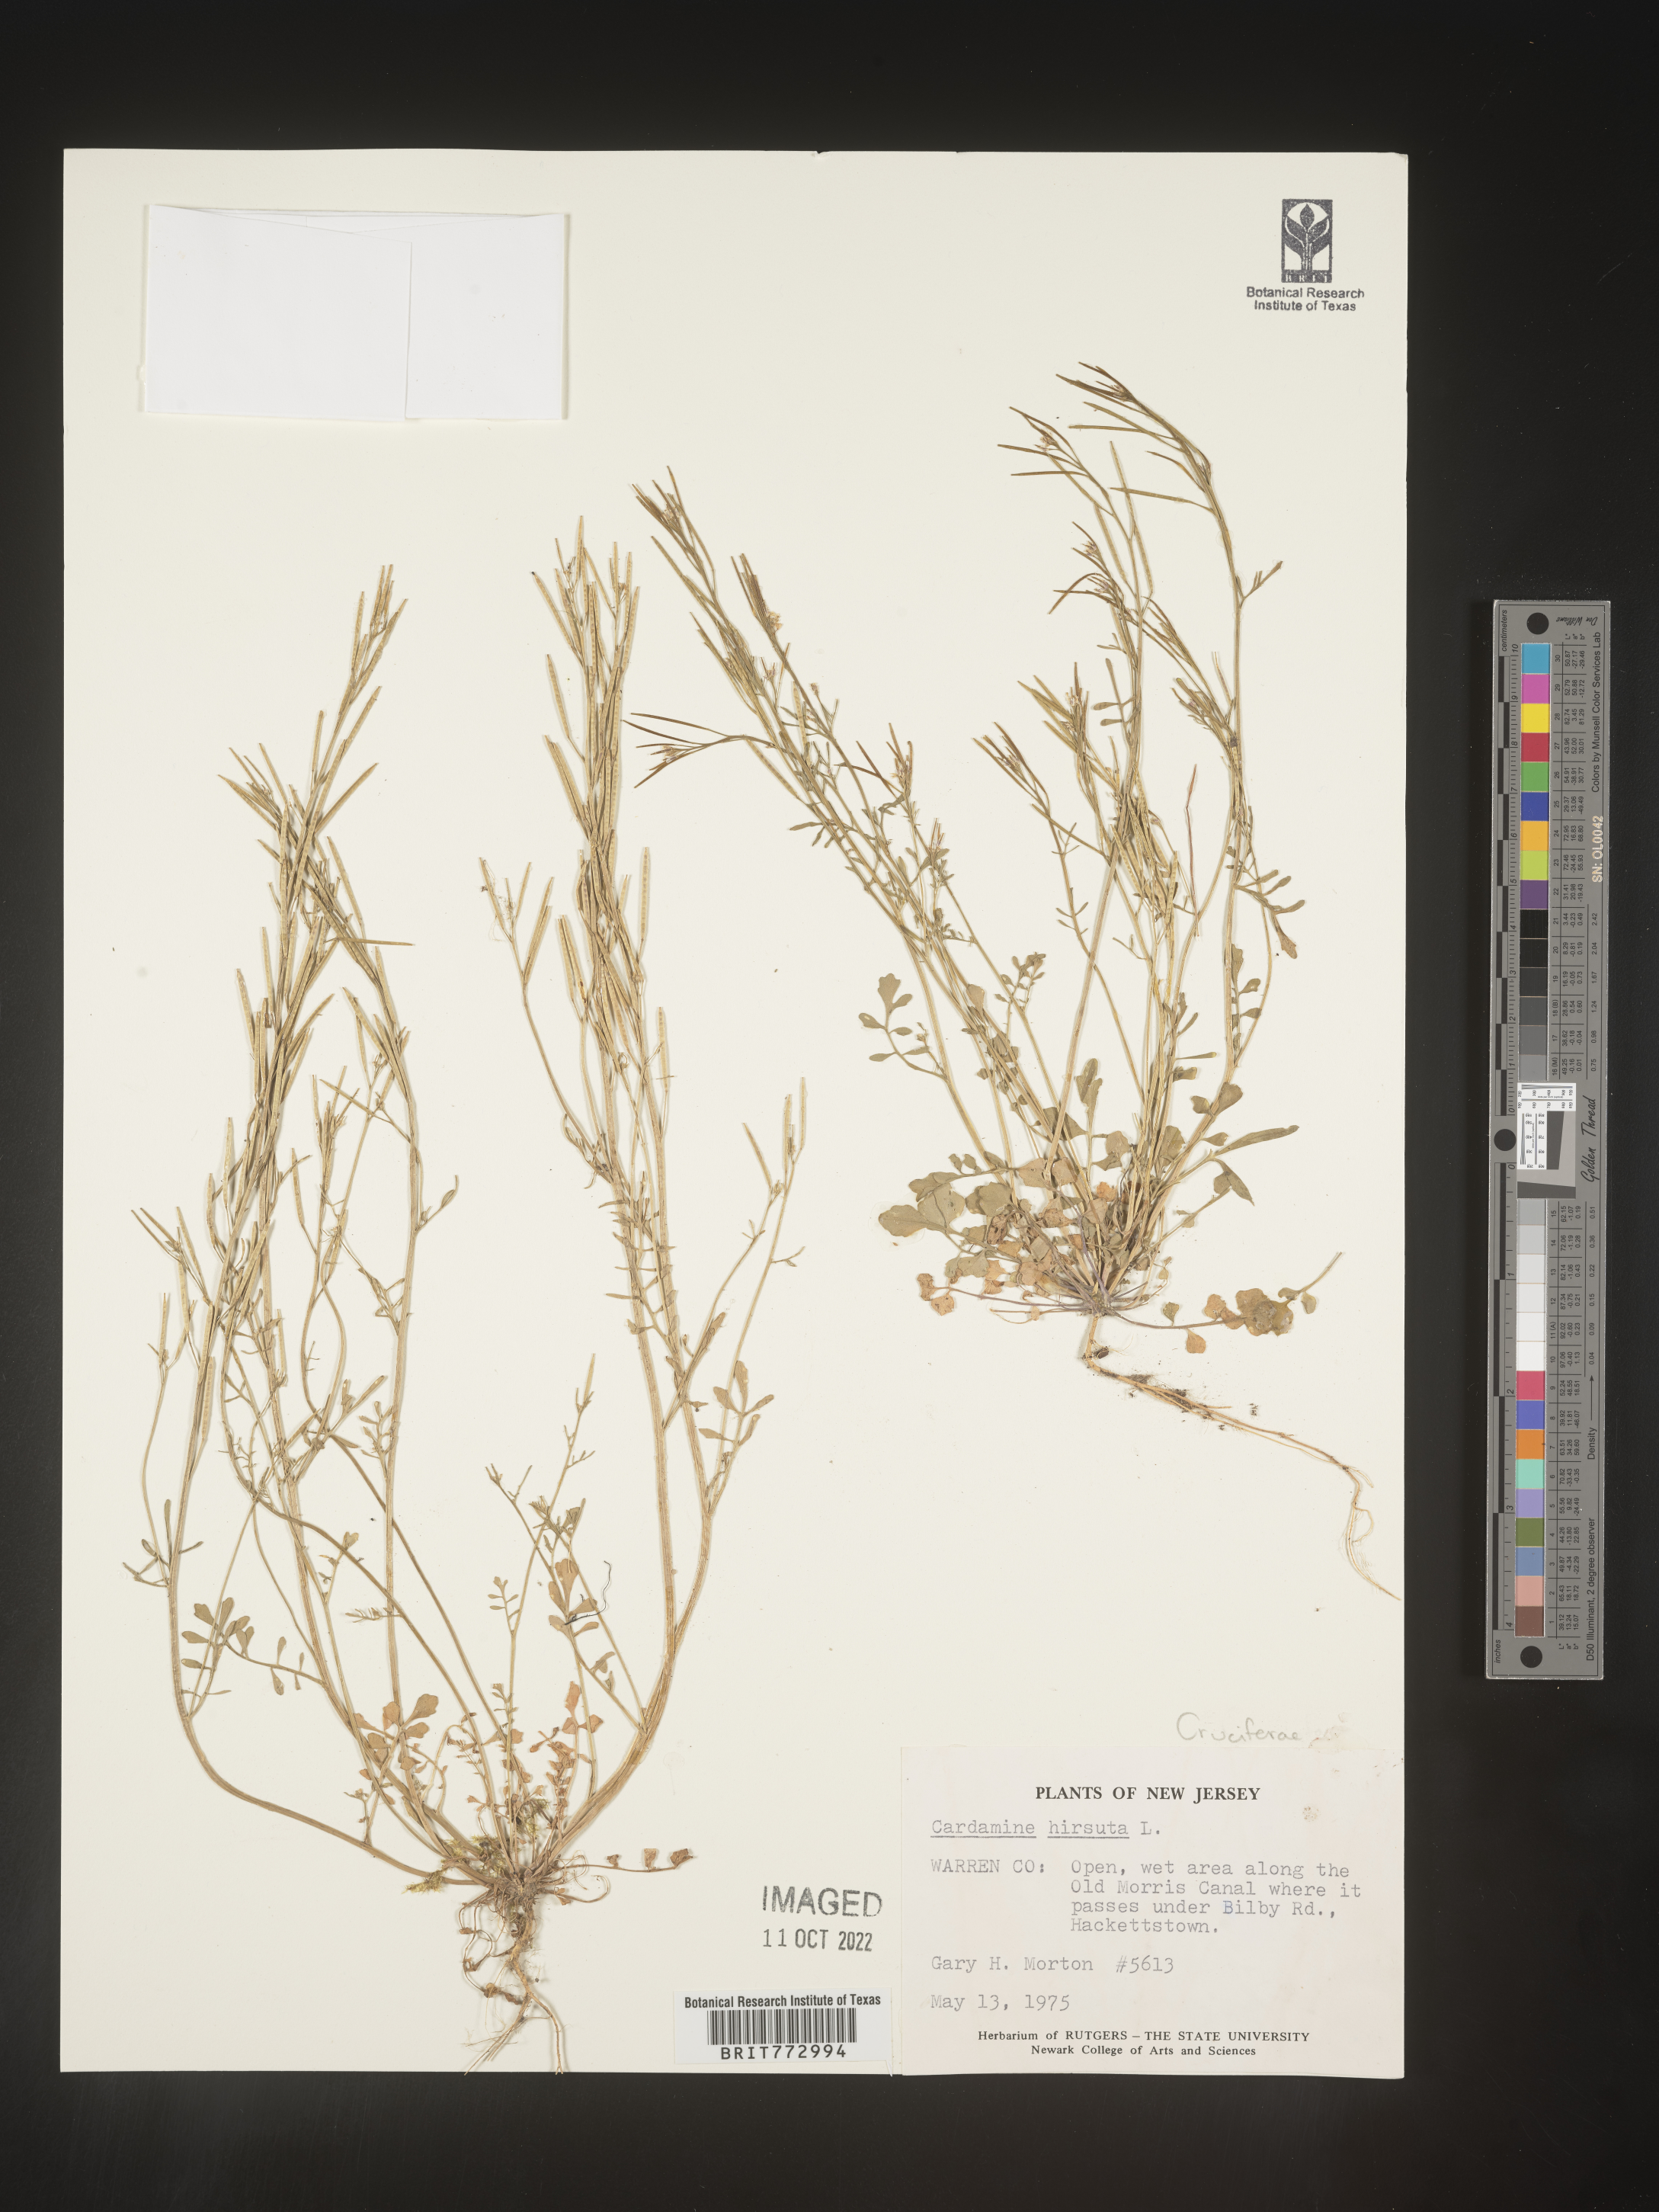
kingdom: Plantae
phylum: Tracheophyta
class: Magnoliopsida
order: Brassicales
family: Brassicaceae
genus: Cardamine
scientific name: Cardamine hirsuta
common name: Hairy bittercress
